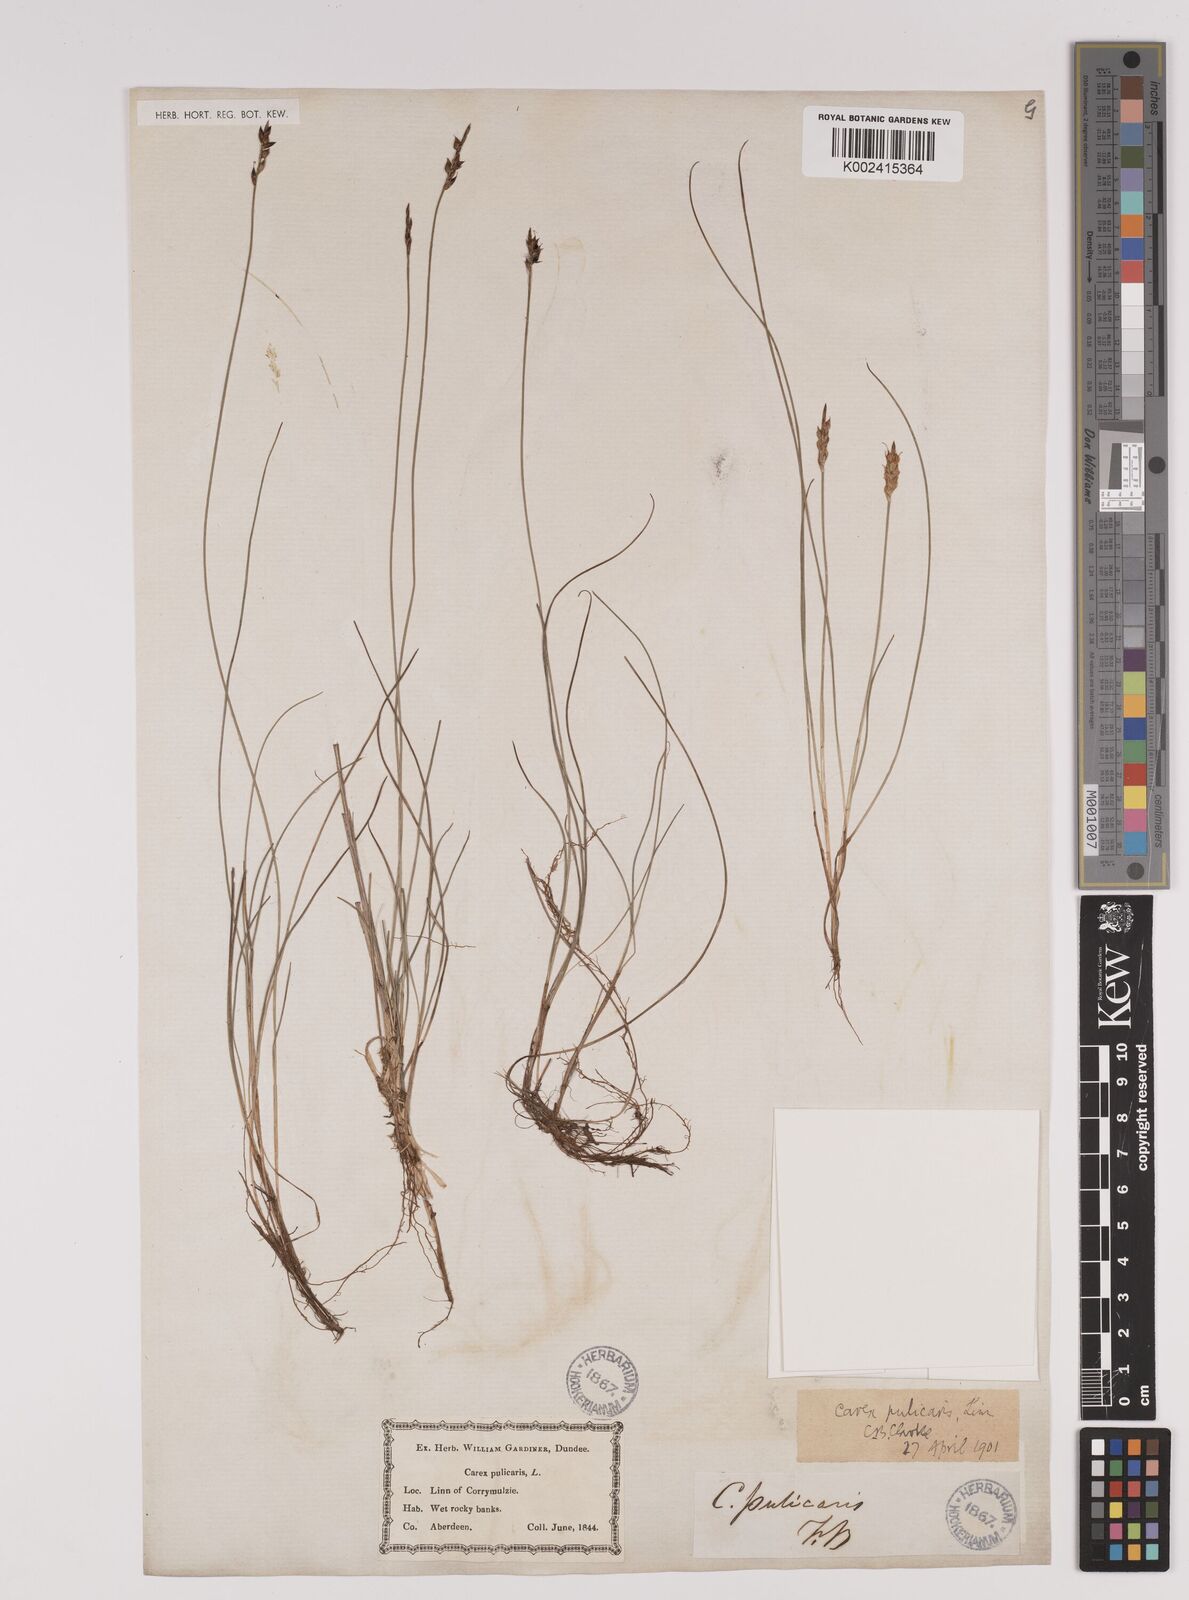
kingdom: Plantae
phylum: Tracheophyta
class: Liliopsida
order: Poales
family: Cyperaceae
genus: Carex
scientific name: Carex pulicaris
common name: Flea sedge
